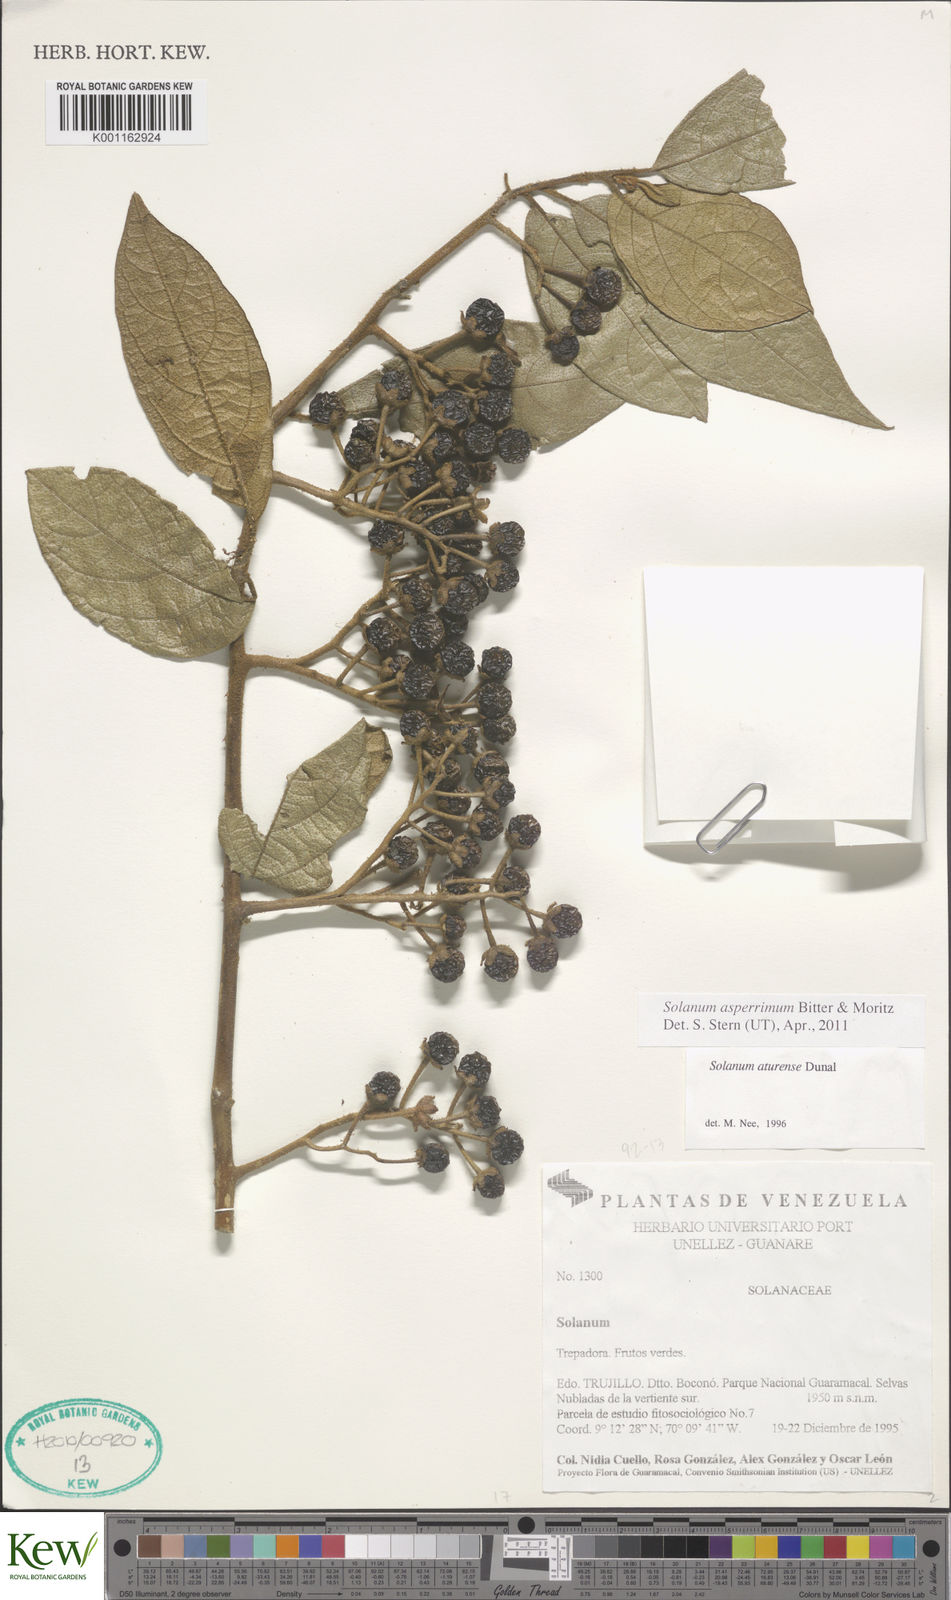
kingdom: Plantae
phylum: Tracheophyta
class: Magnoliopsida
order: Solanales
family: Solanaceae
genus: Solanum
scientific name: Solanum aturense
